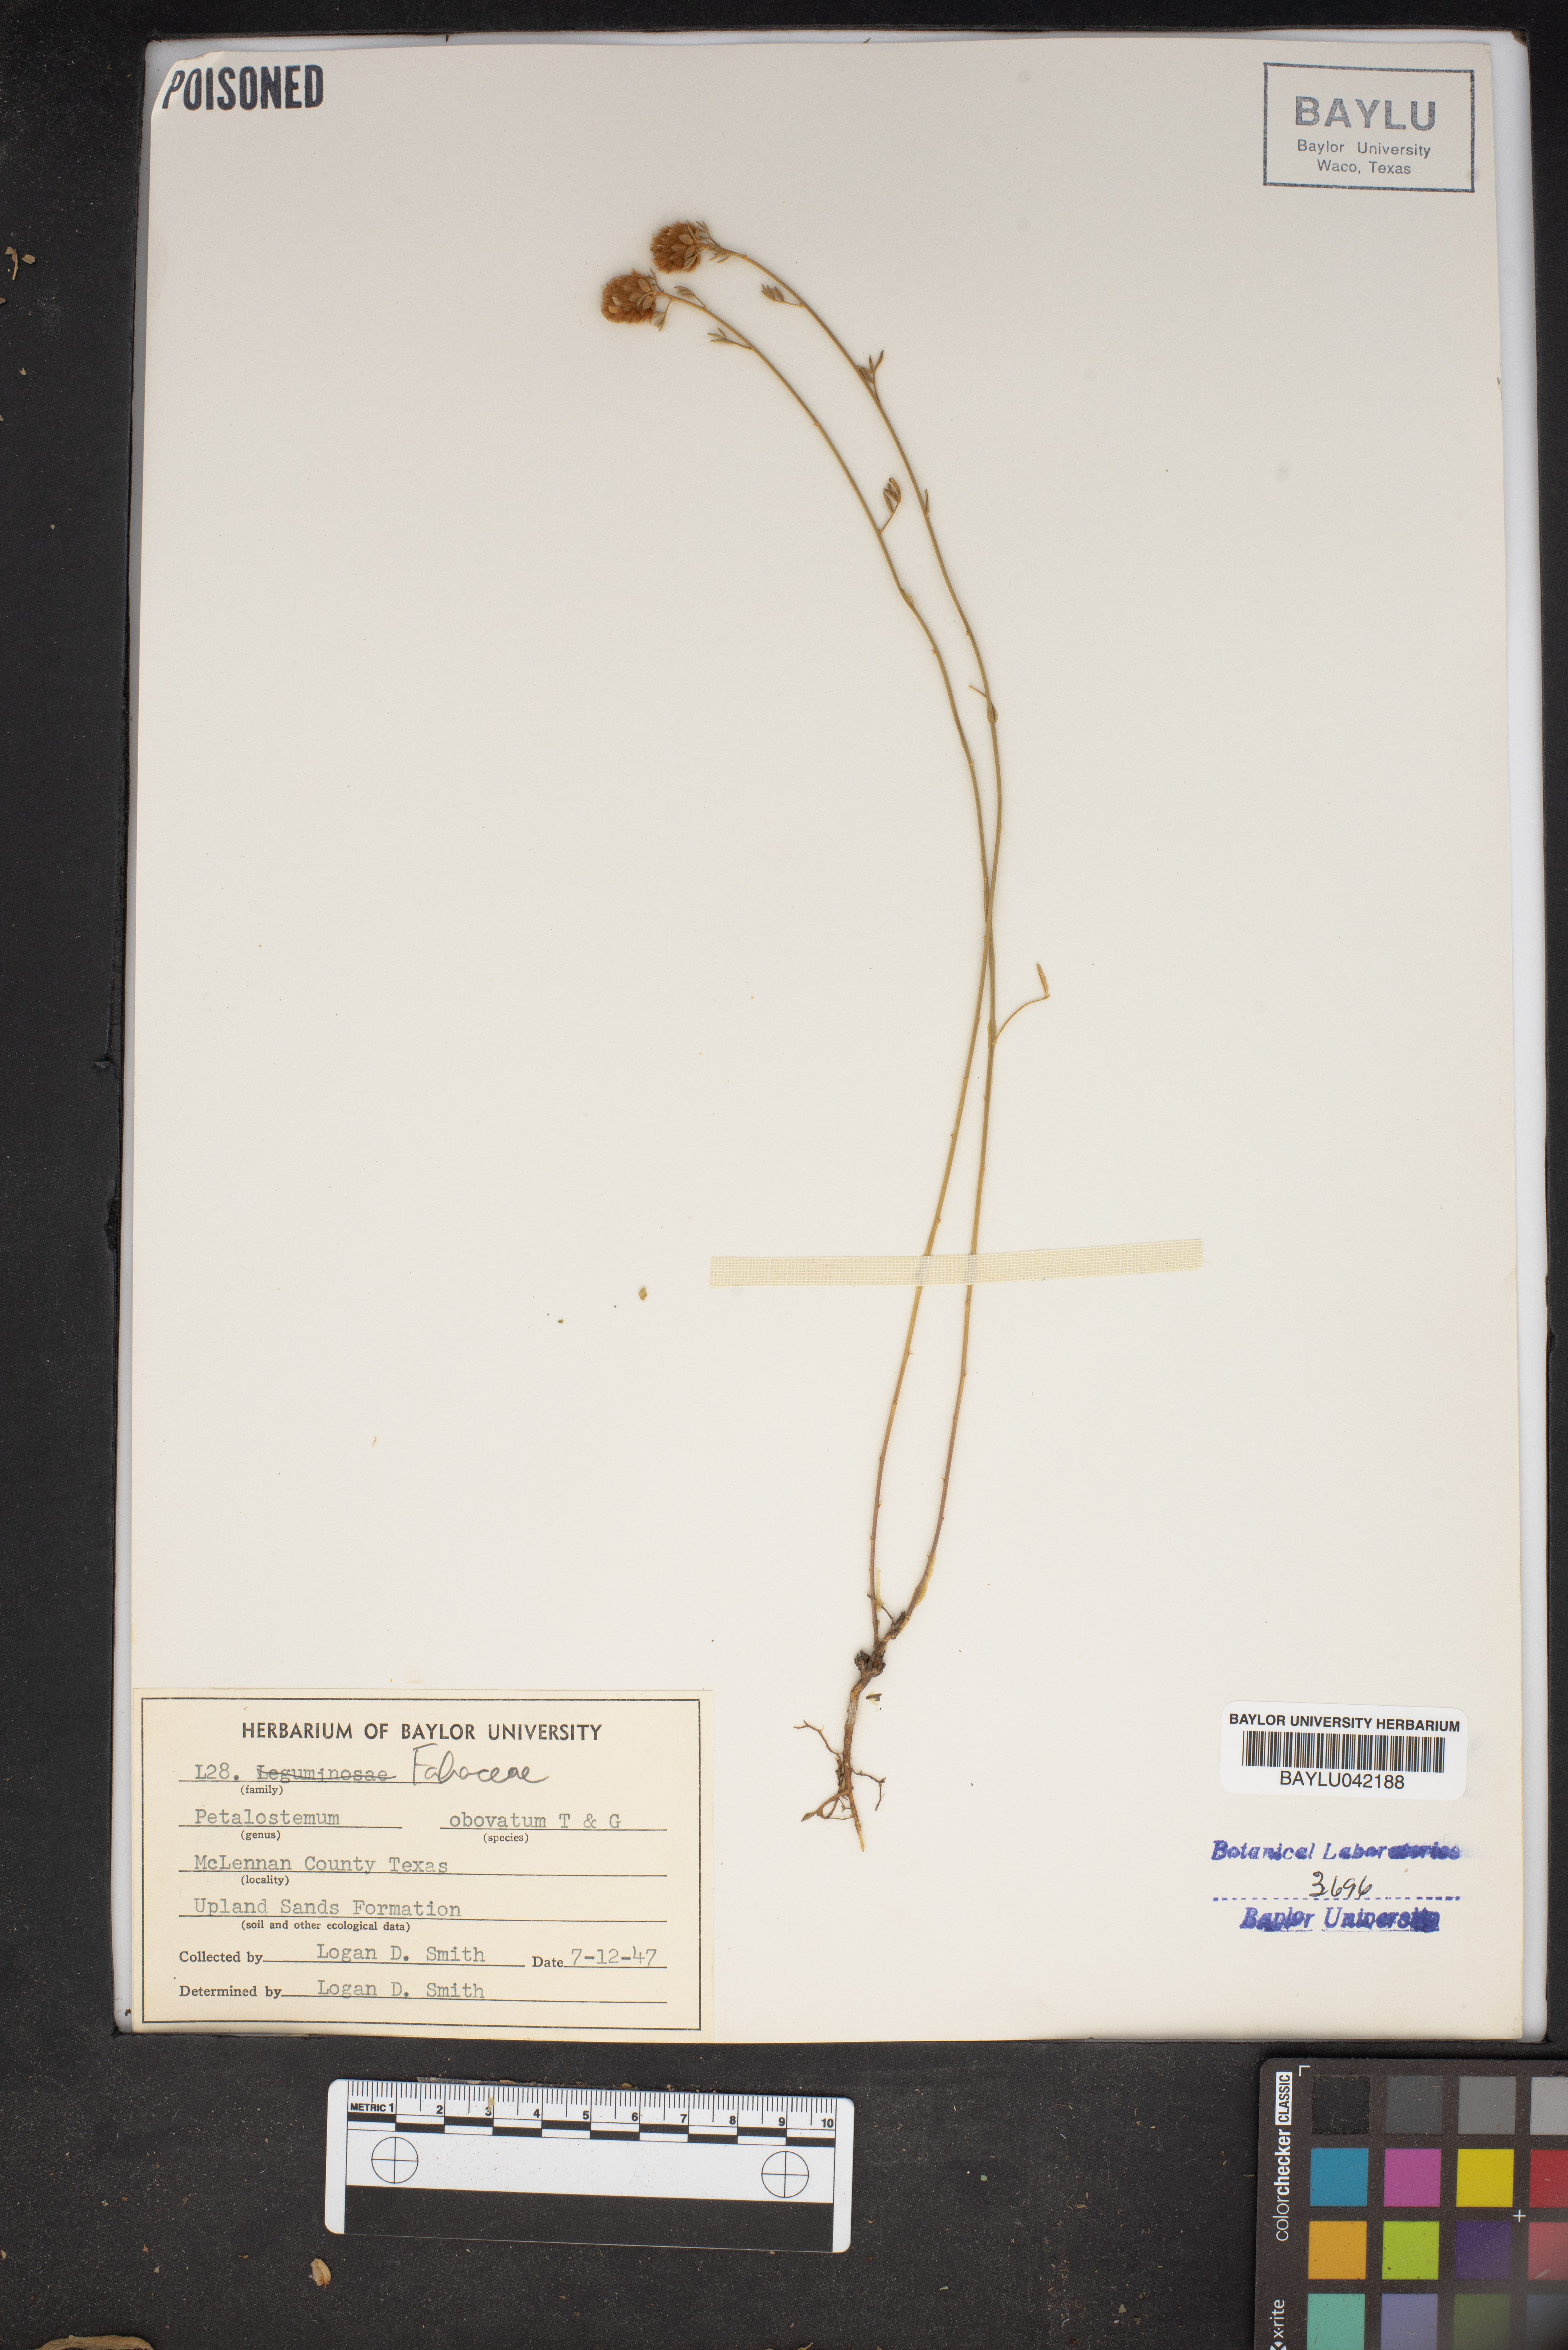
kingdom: Plantae
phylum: Tracheophyta
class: Magnoliopsida
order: Fabales
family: Fabaceae
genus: Dalea
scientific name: Dalea obovata
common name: Pussyfoot
